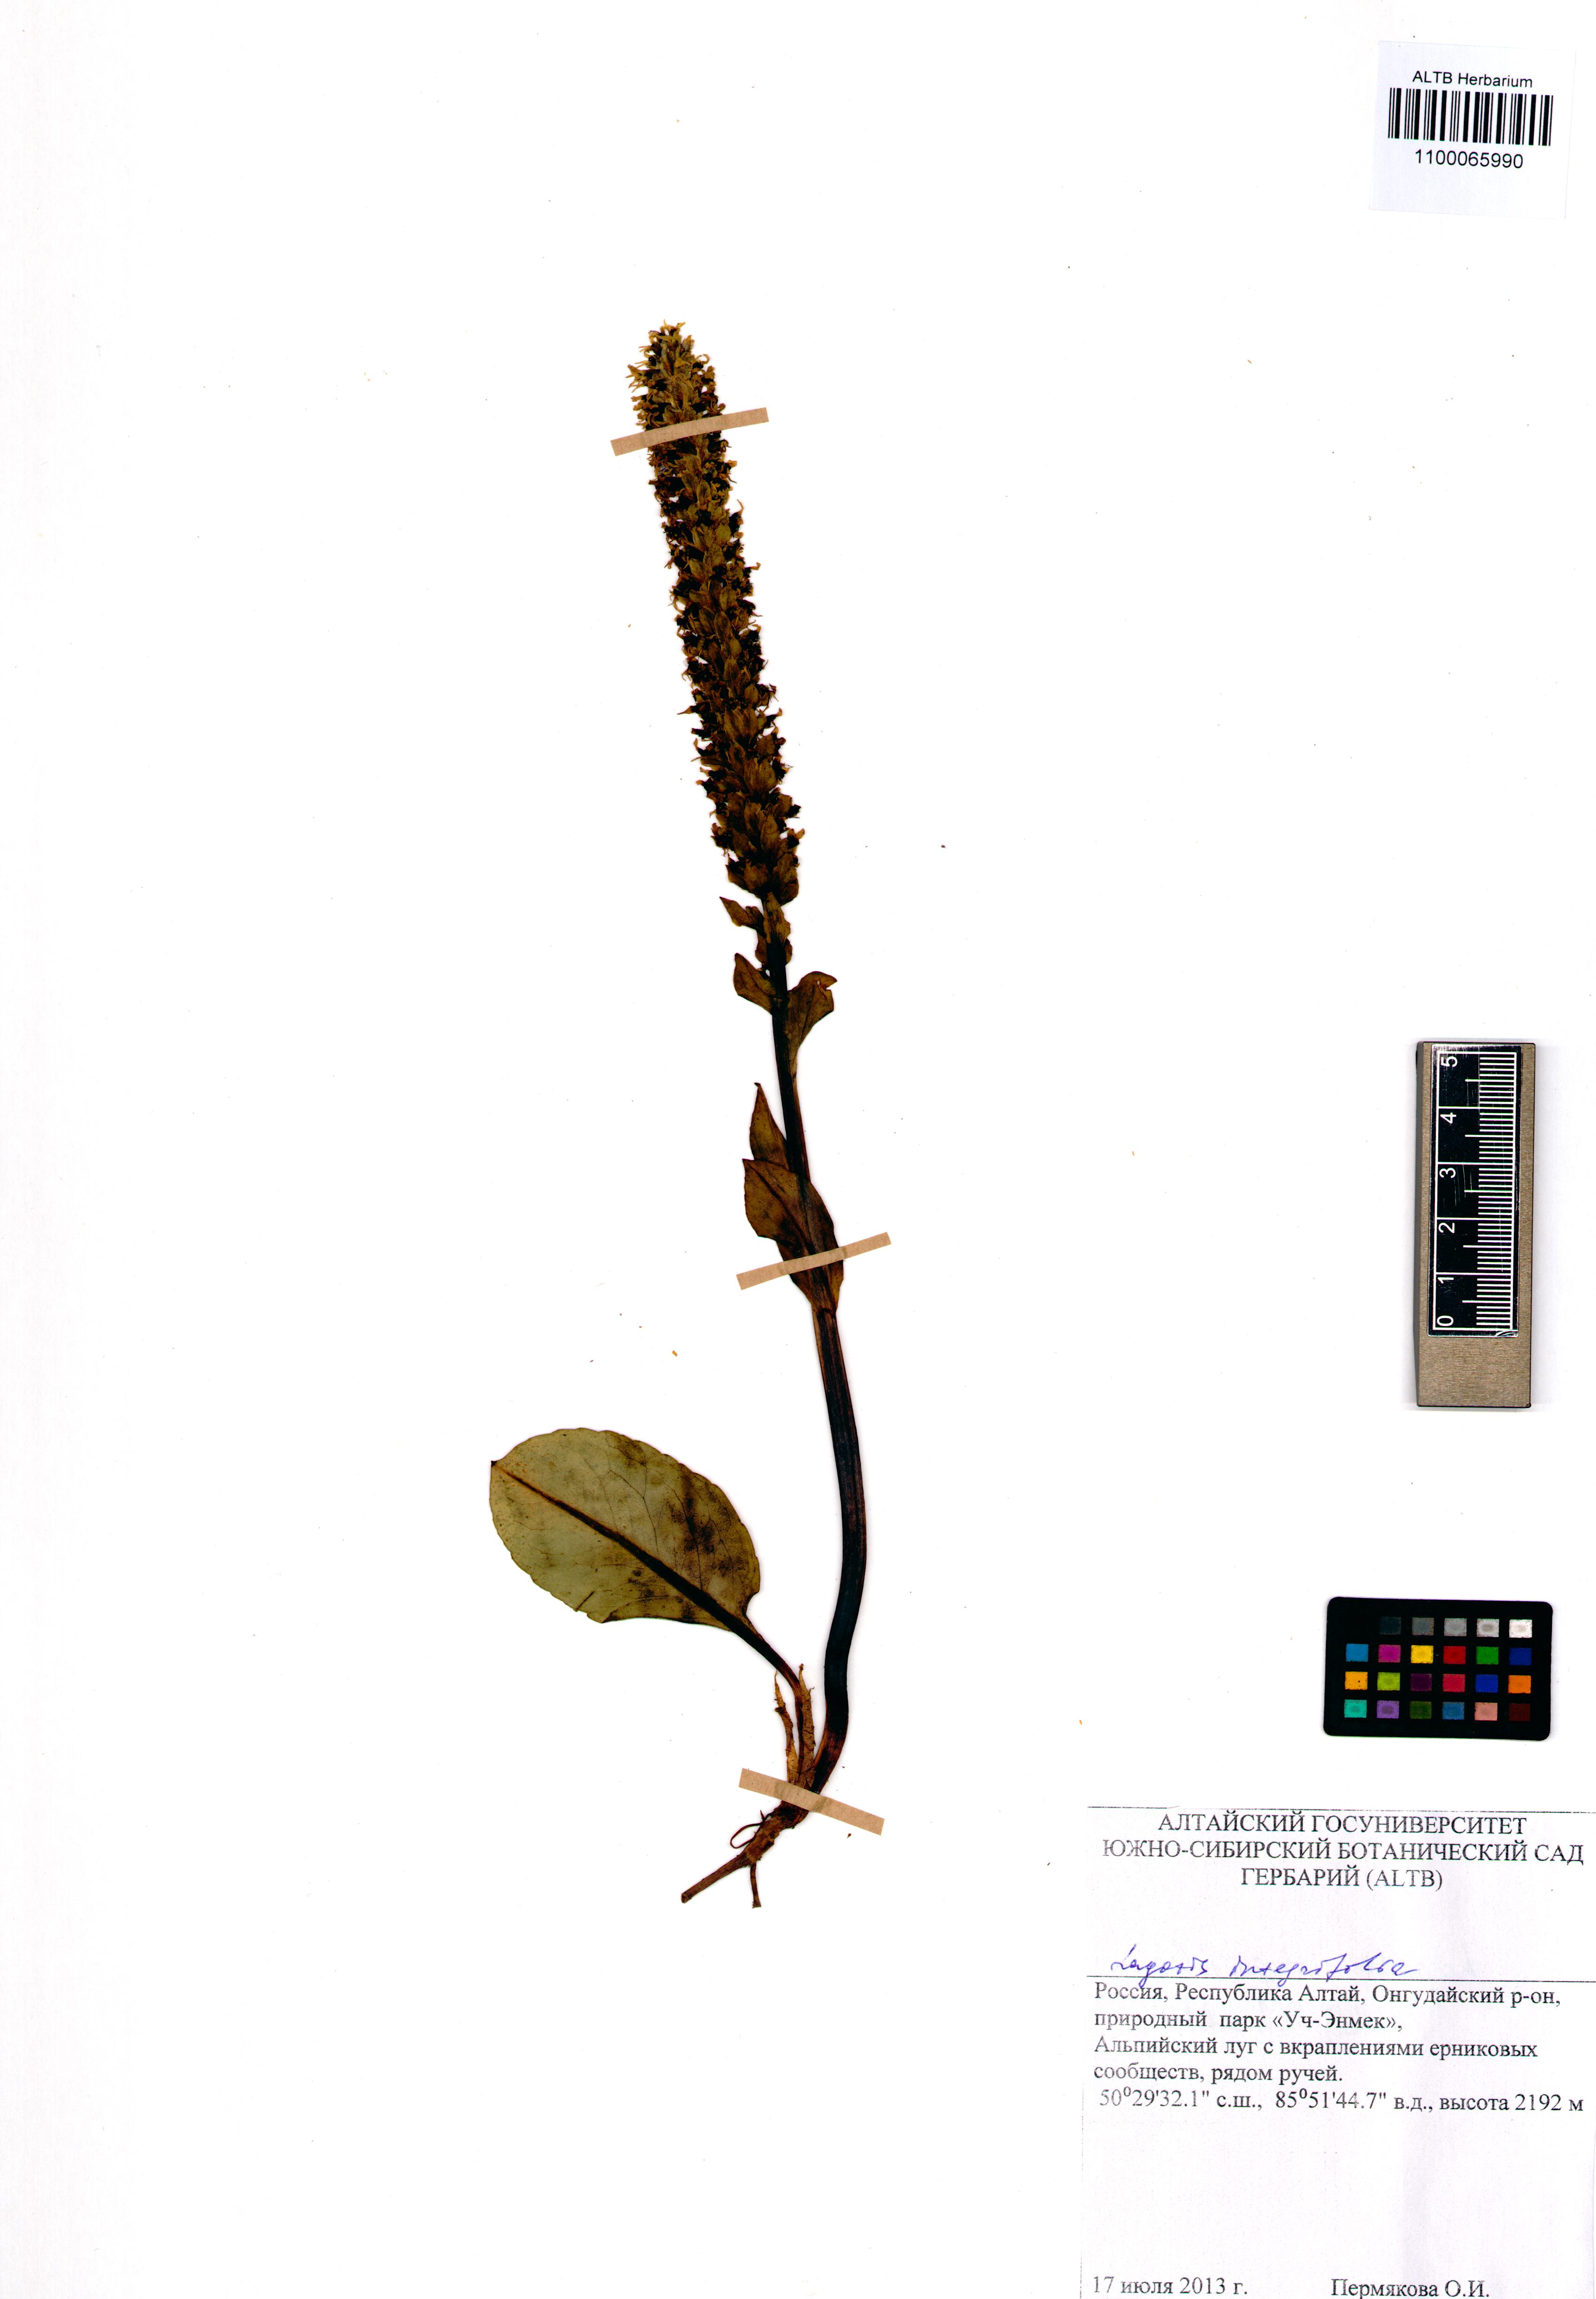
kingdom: Plantae
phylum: Tracheophyta
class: Magnoliopsida
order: Lamiales
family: Plantaginaceae
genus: Lagotis
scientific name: Lagotis integrifolia
